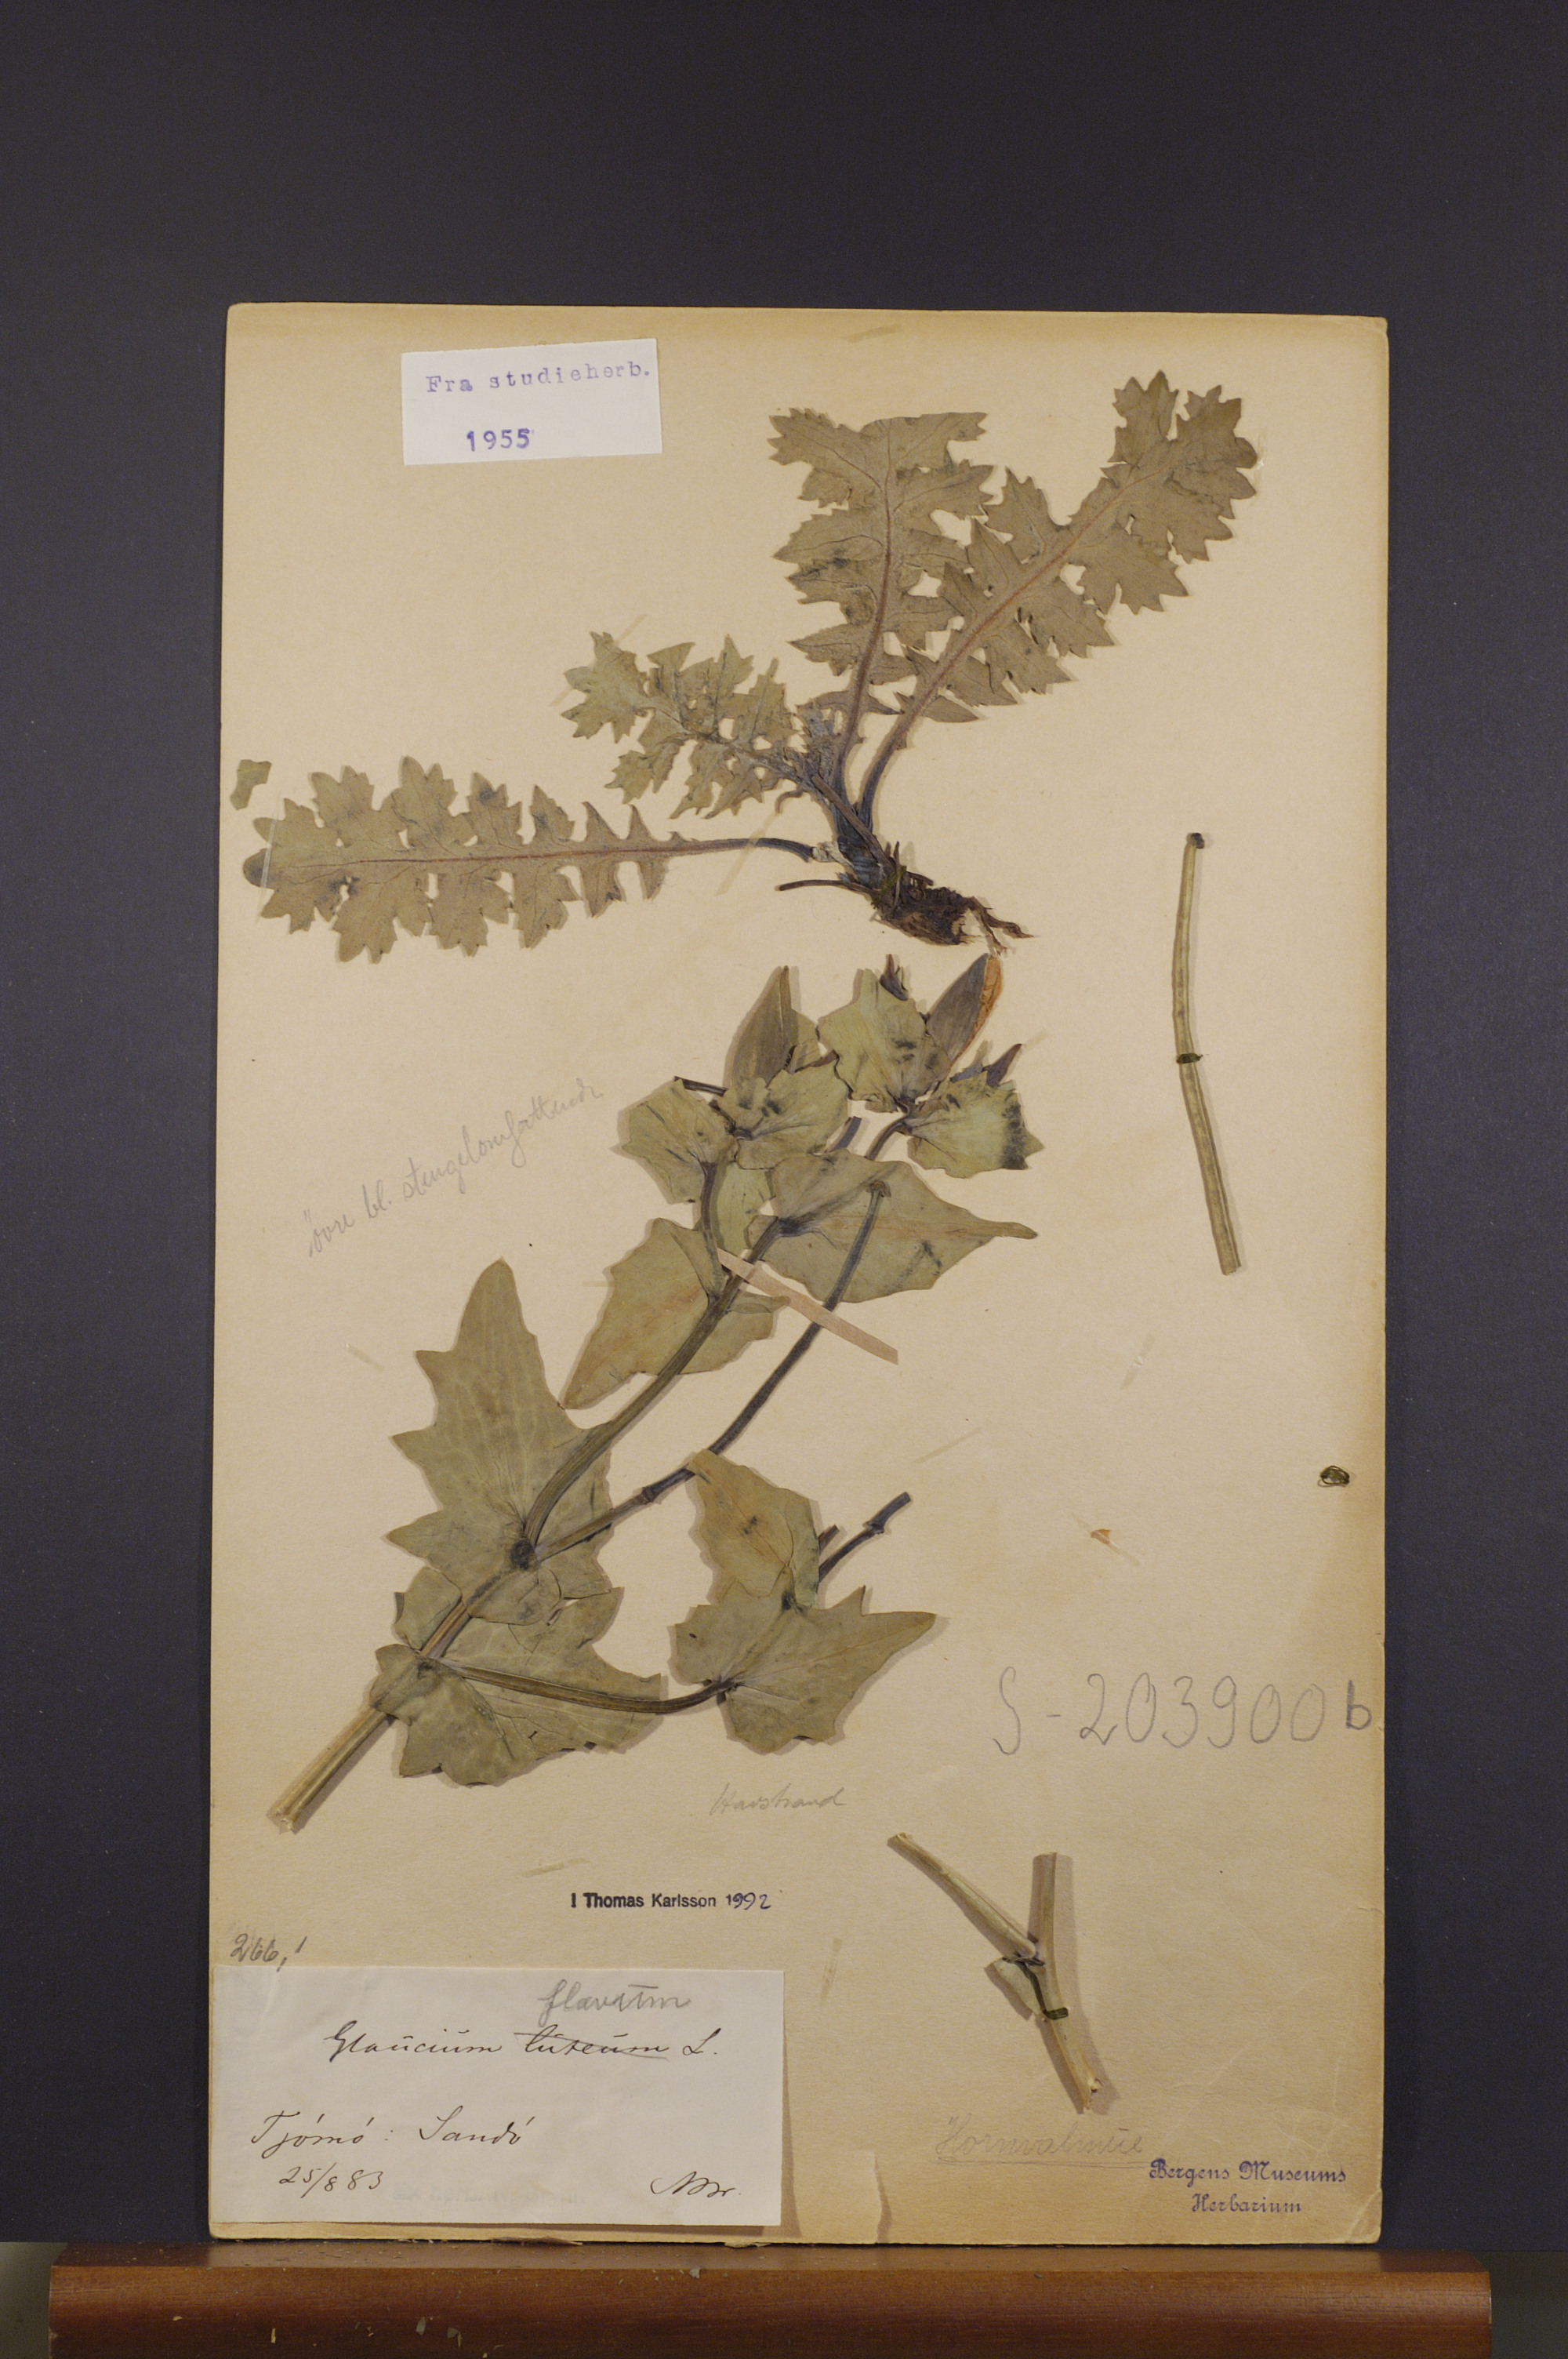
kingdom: Plantae
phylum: Tracheophyta
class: Magnoliopsida
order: Ranunculales
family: Papaveraceae
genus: Glaucium
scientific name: Glaucium flavum
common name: Yellow horned-poppy
